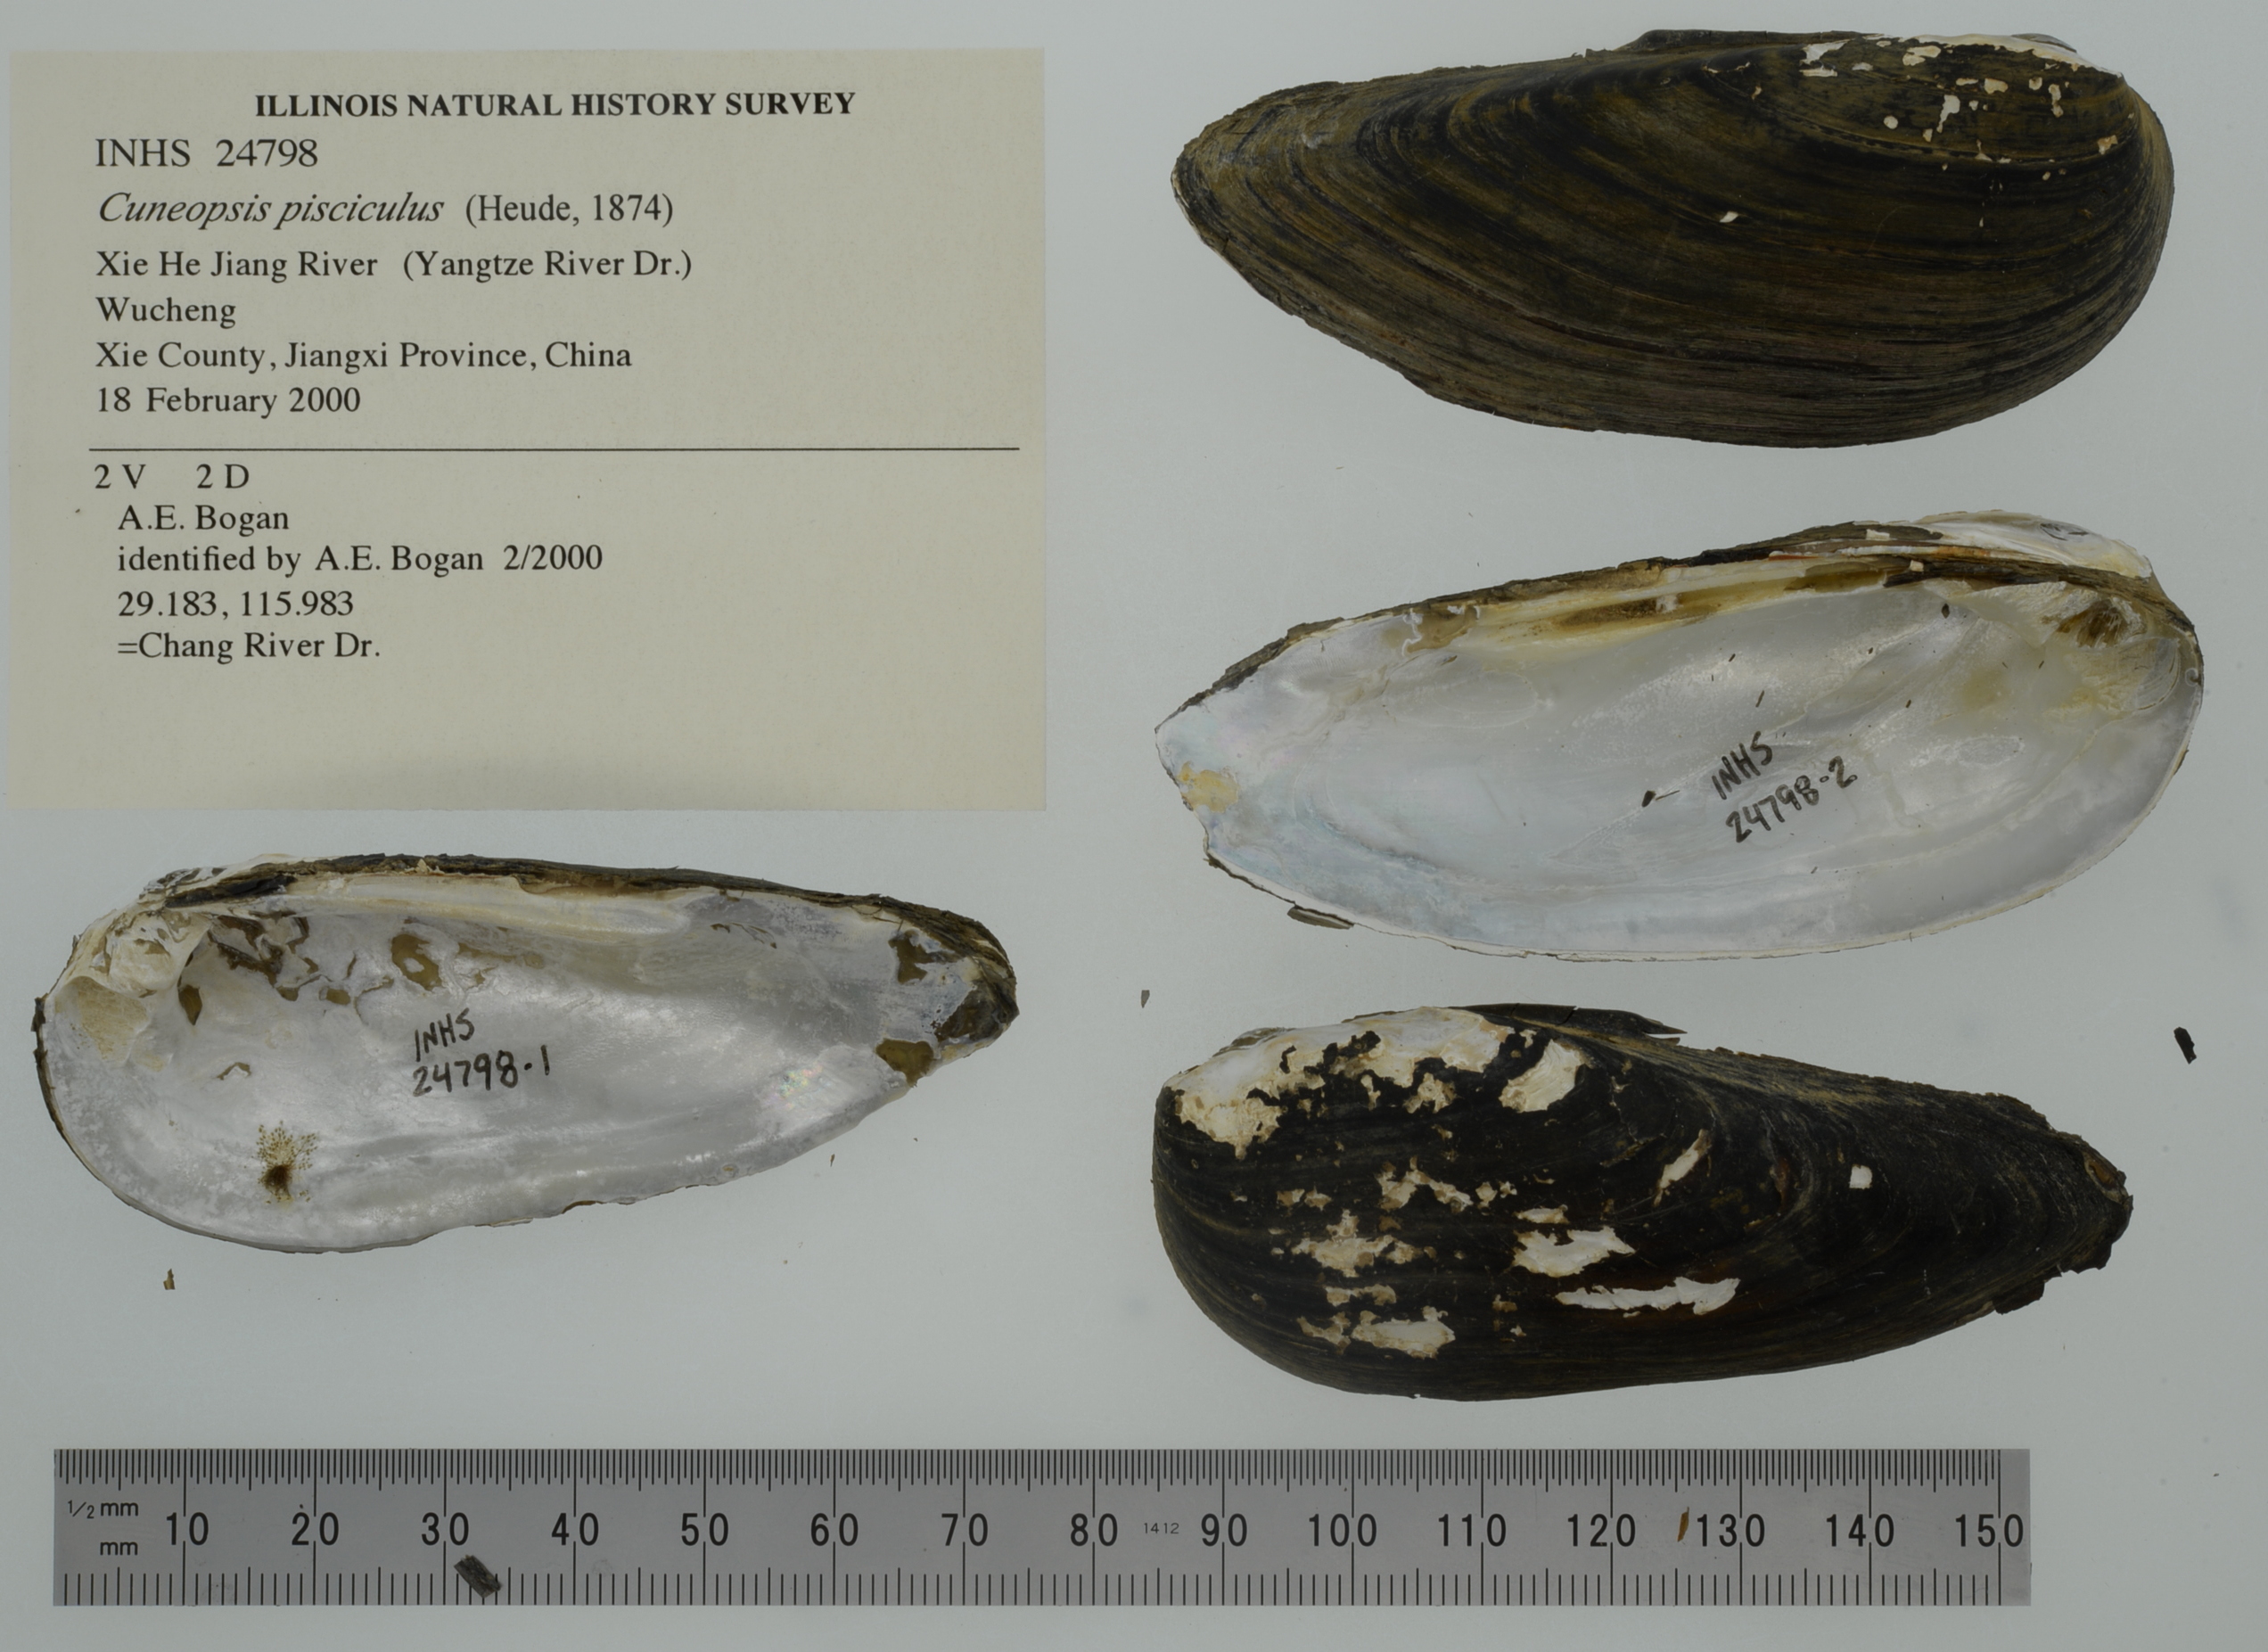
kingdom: Animalia
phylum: Mollusca
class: Bivalvia
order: Unionida
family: Unionidae
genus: Tchangsinaia
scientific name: Tchangsinaia piscicula
